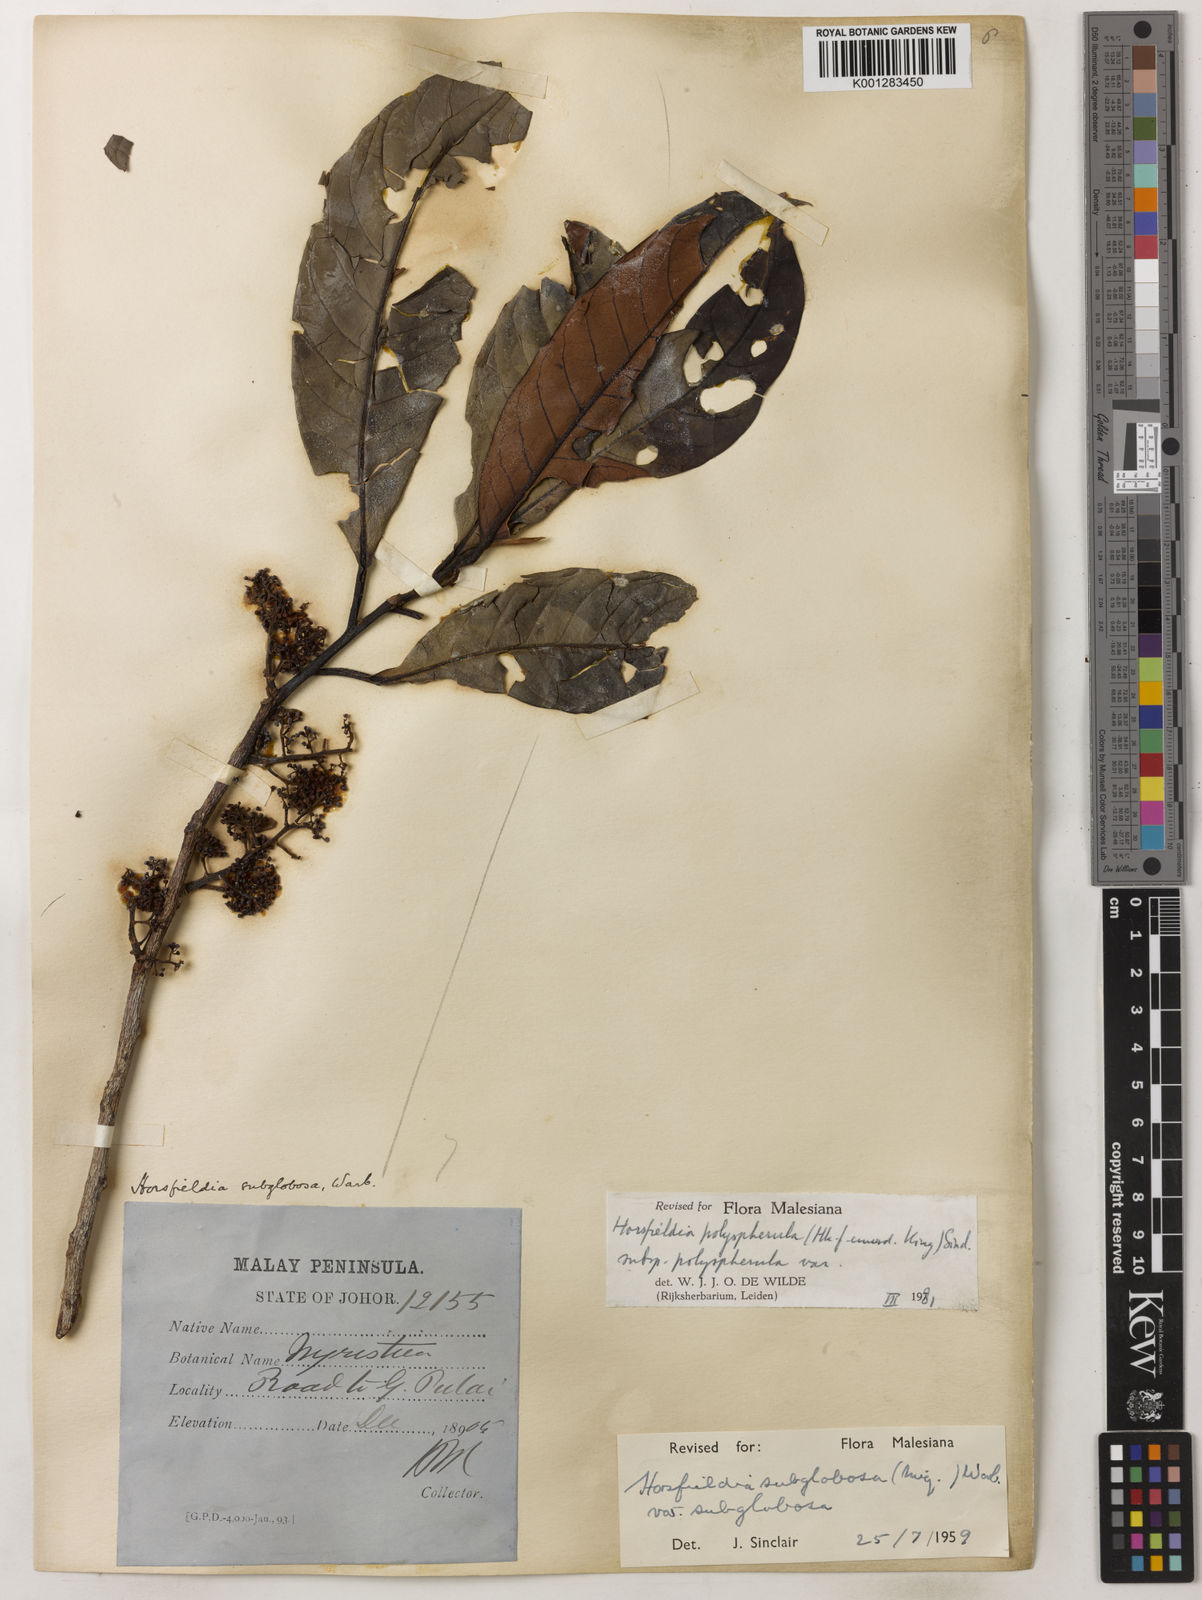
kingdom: Plantae
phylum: Tracheophyta
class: Magnoliopsida
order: Magnoliales
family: Myristicaceae
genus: Horsfieldia
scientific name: Horsfieldia polyspherula
